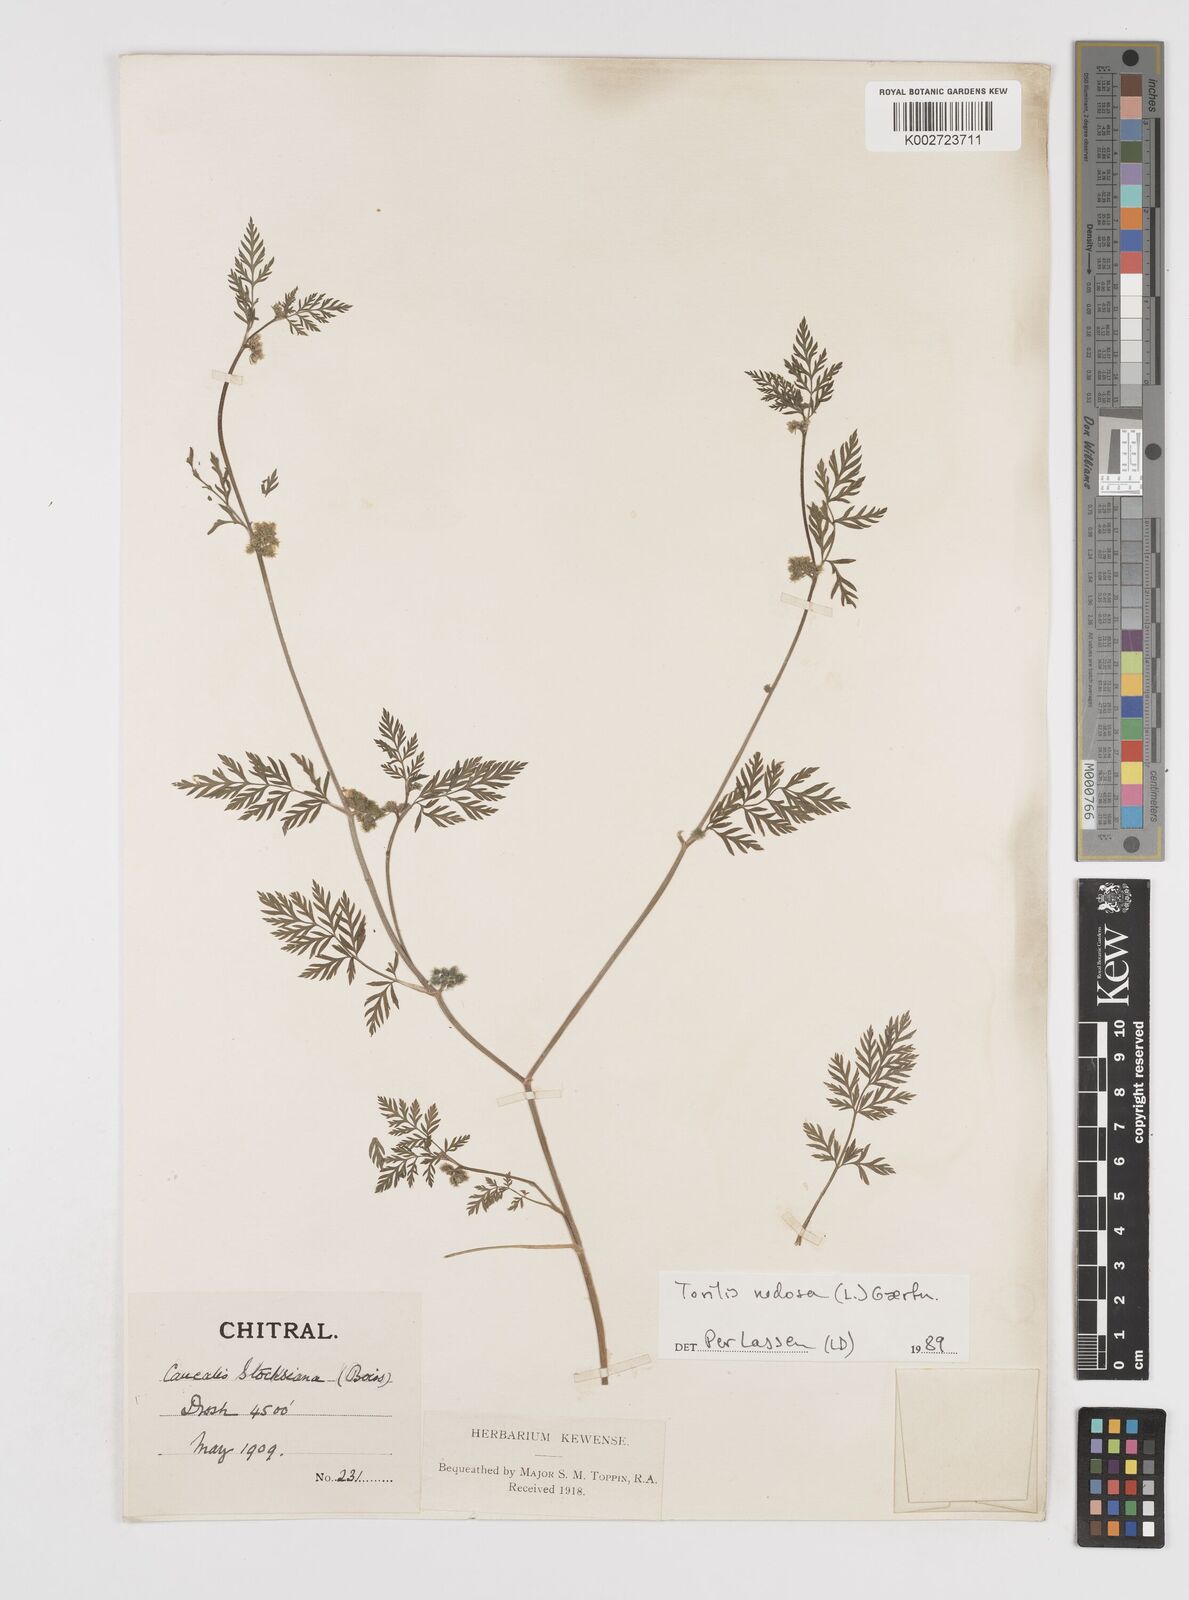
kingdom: Plantae
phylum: Tracheophyta
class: Magnoliopsida
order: Apiales
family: Apiaceae
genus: Torilis
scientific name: Torilis nodosa
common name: Knotted hedge-parsley
